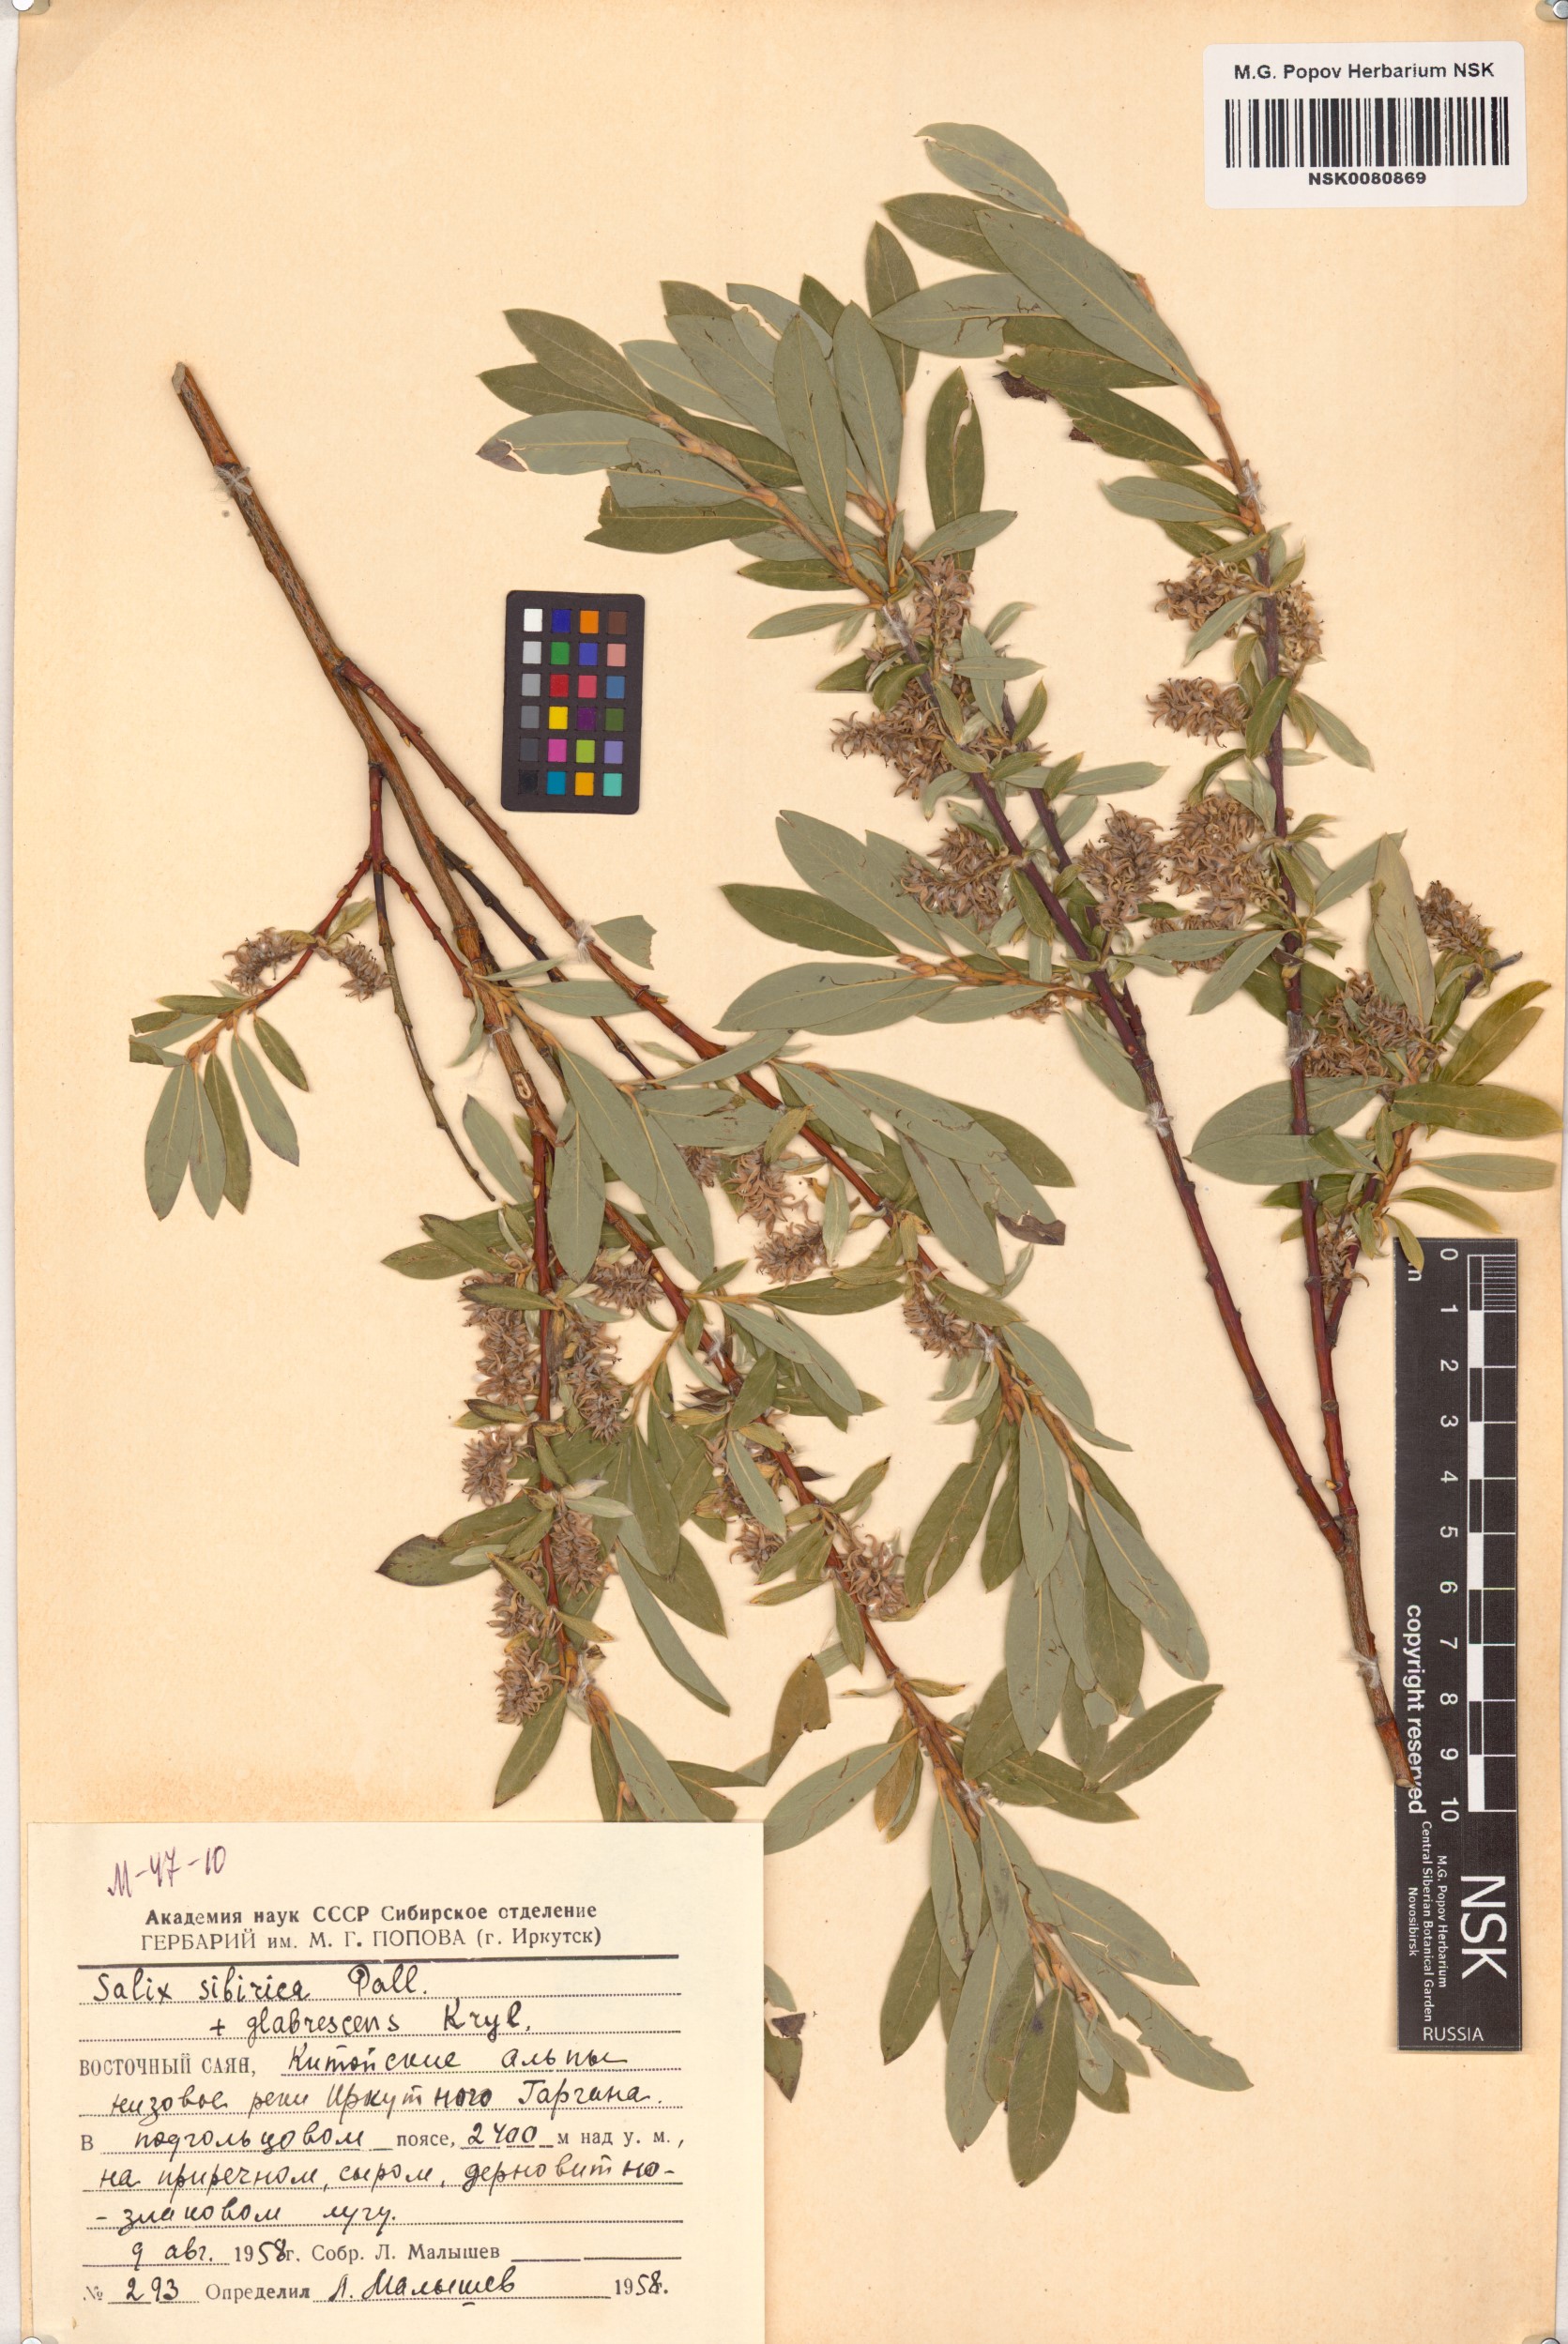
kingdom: Plantae
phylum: Tracheophyta
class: Magnoliopsida
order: Malpighiales
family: Salicaceae
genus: Salix
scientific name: Salix rosmarinifolia
